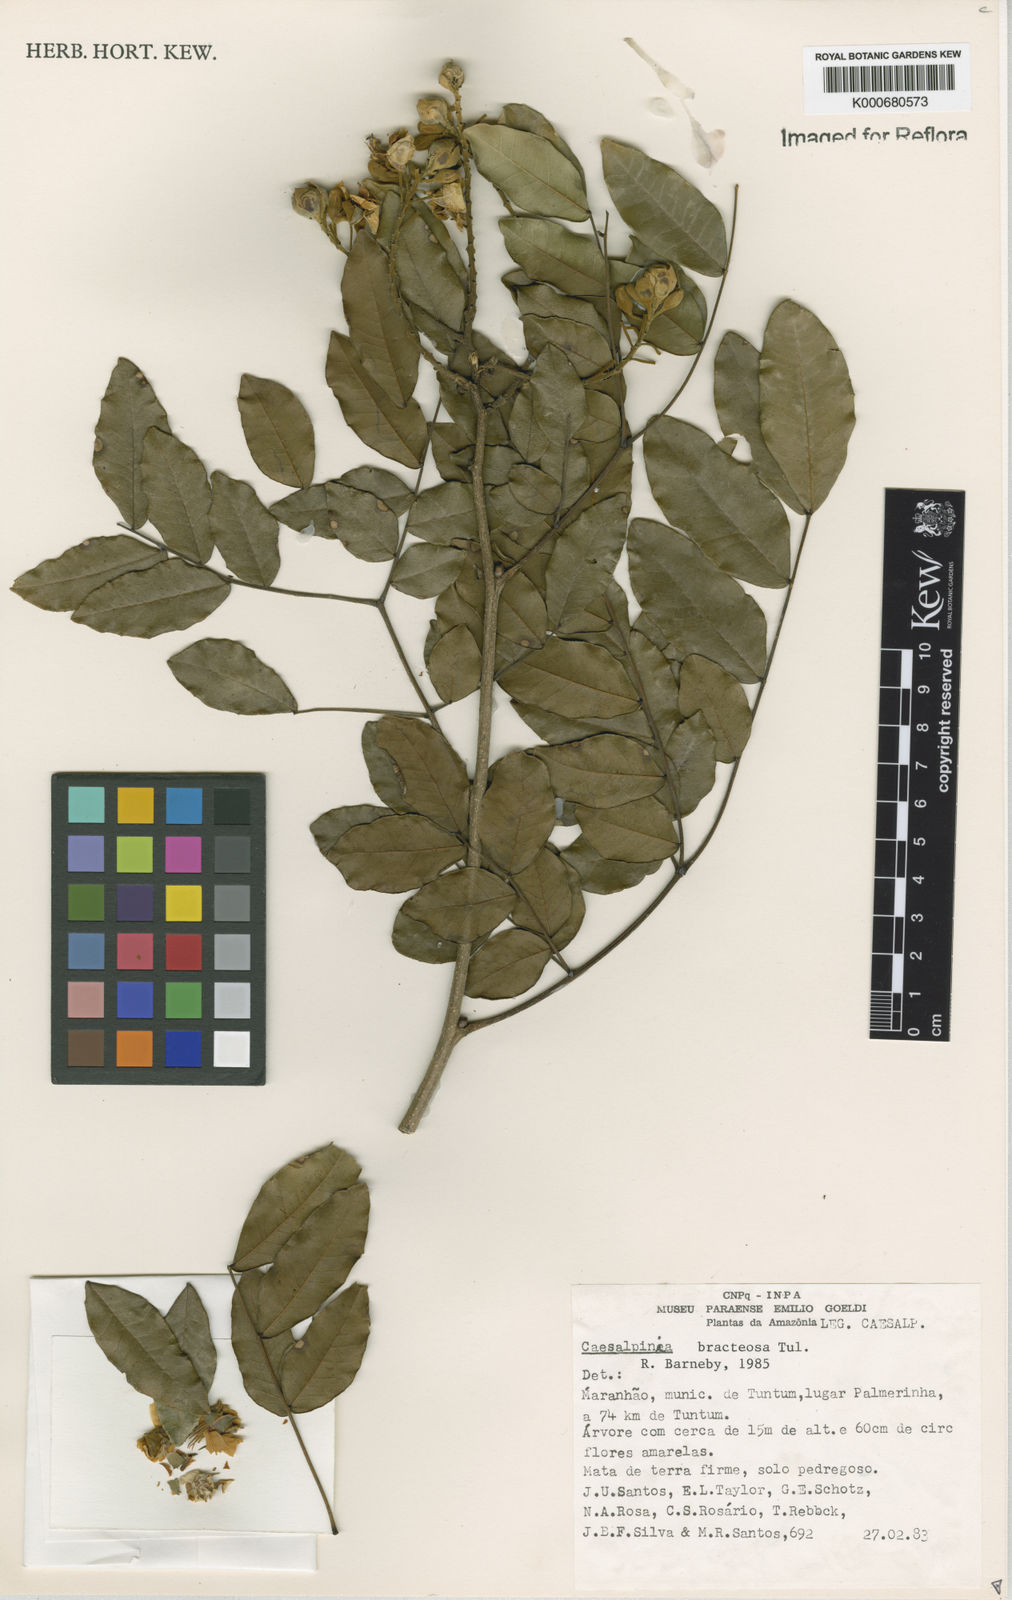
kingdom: Plantae
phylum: Tracheophyta
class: Magnoliopsida
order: Fabales
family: Fabaceae
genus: Cenostigma
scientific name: Cenostigma bracteosum
